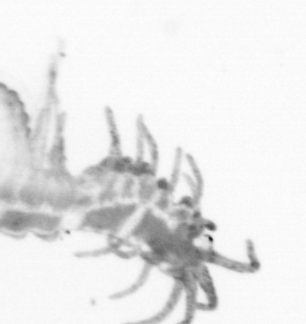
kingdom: Animalia
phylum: Annelida
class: Polychaeta
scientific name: Polychaeta
